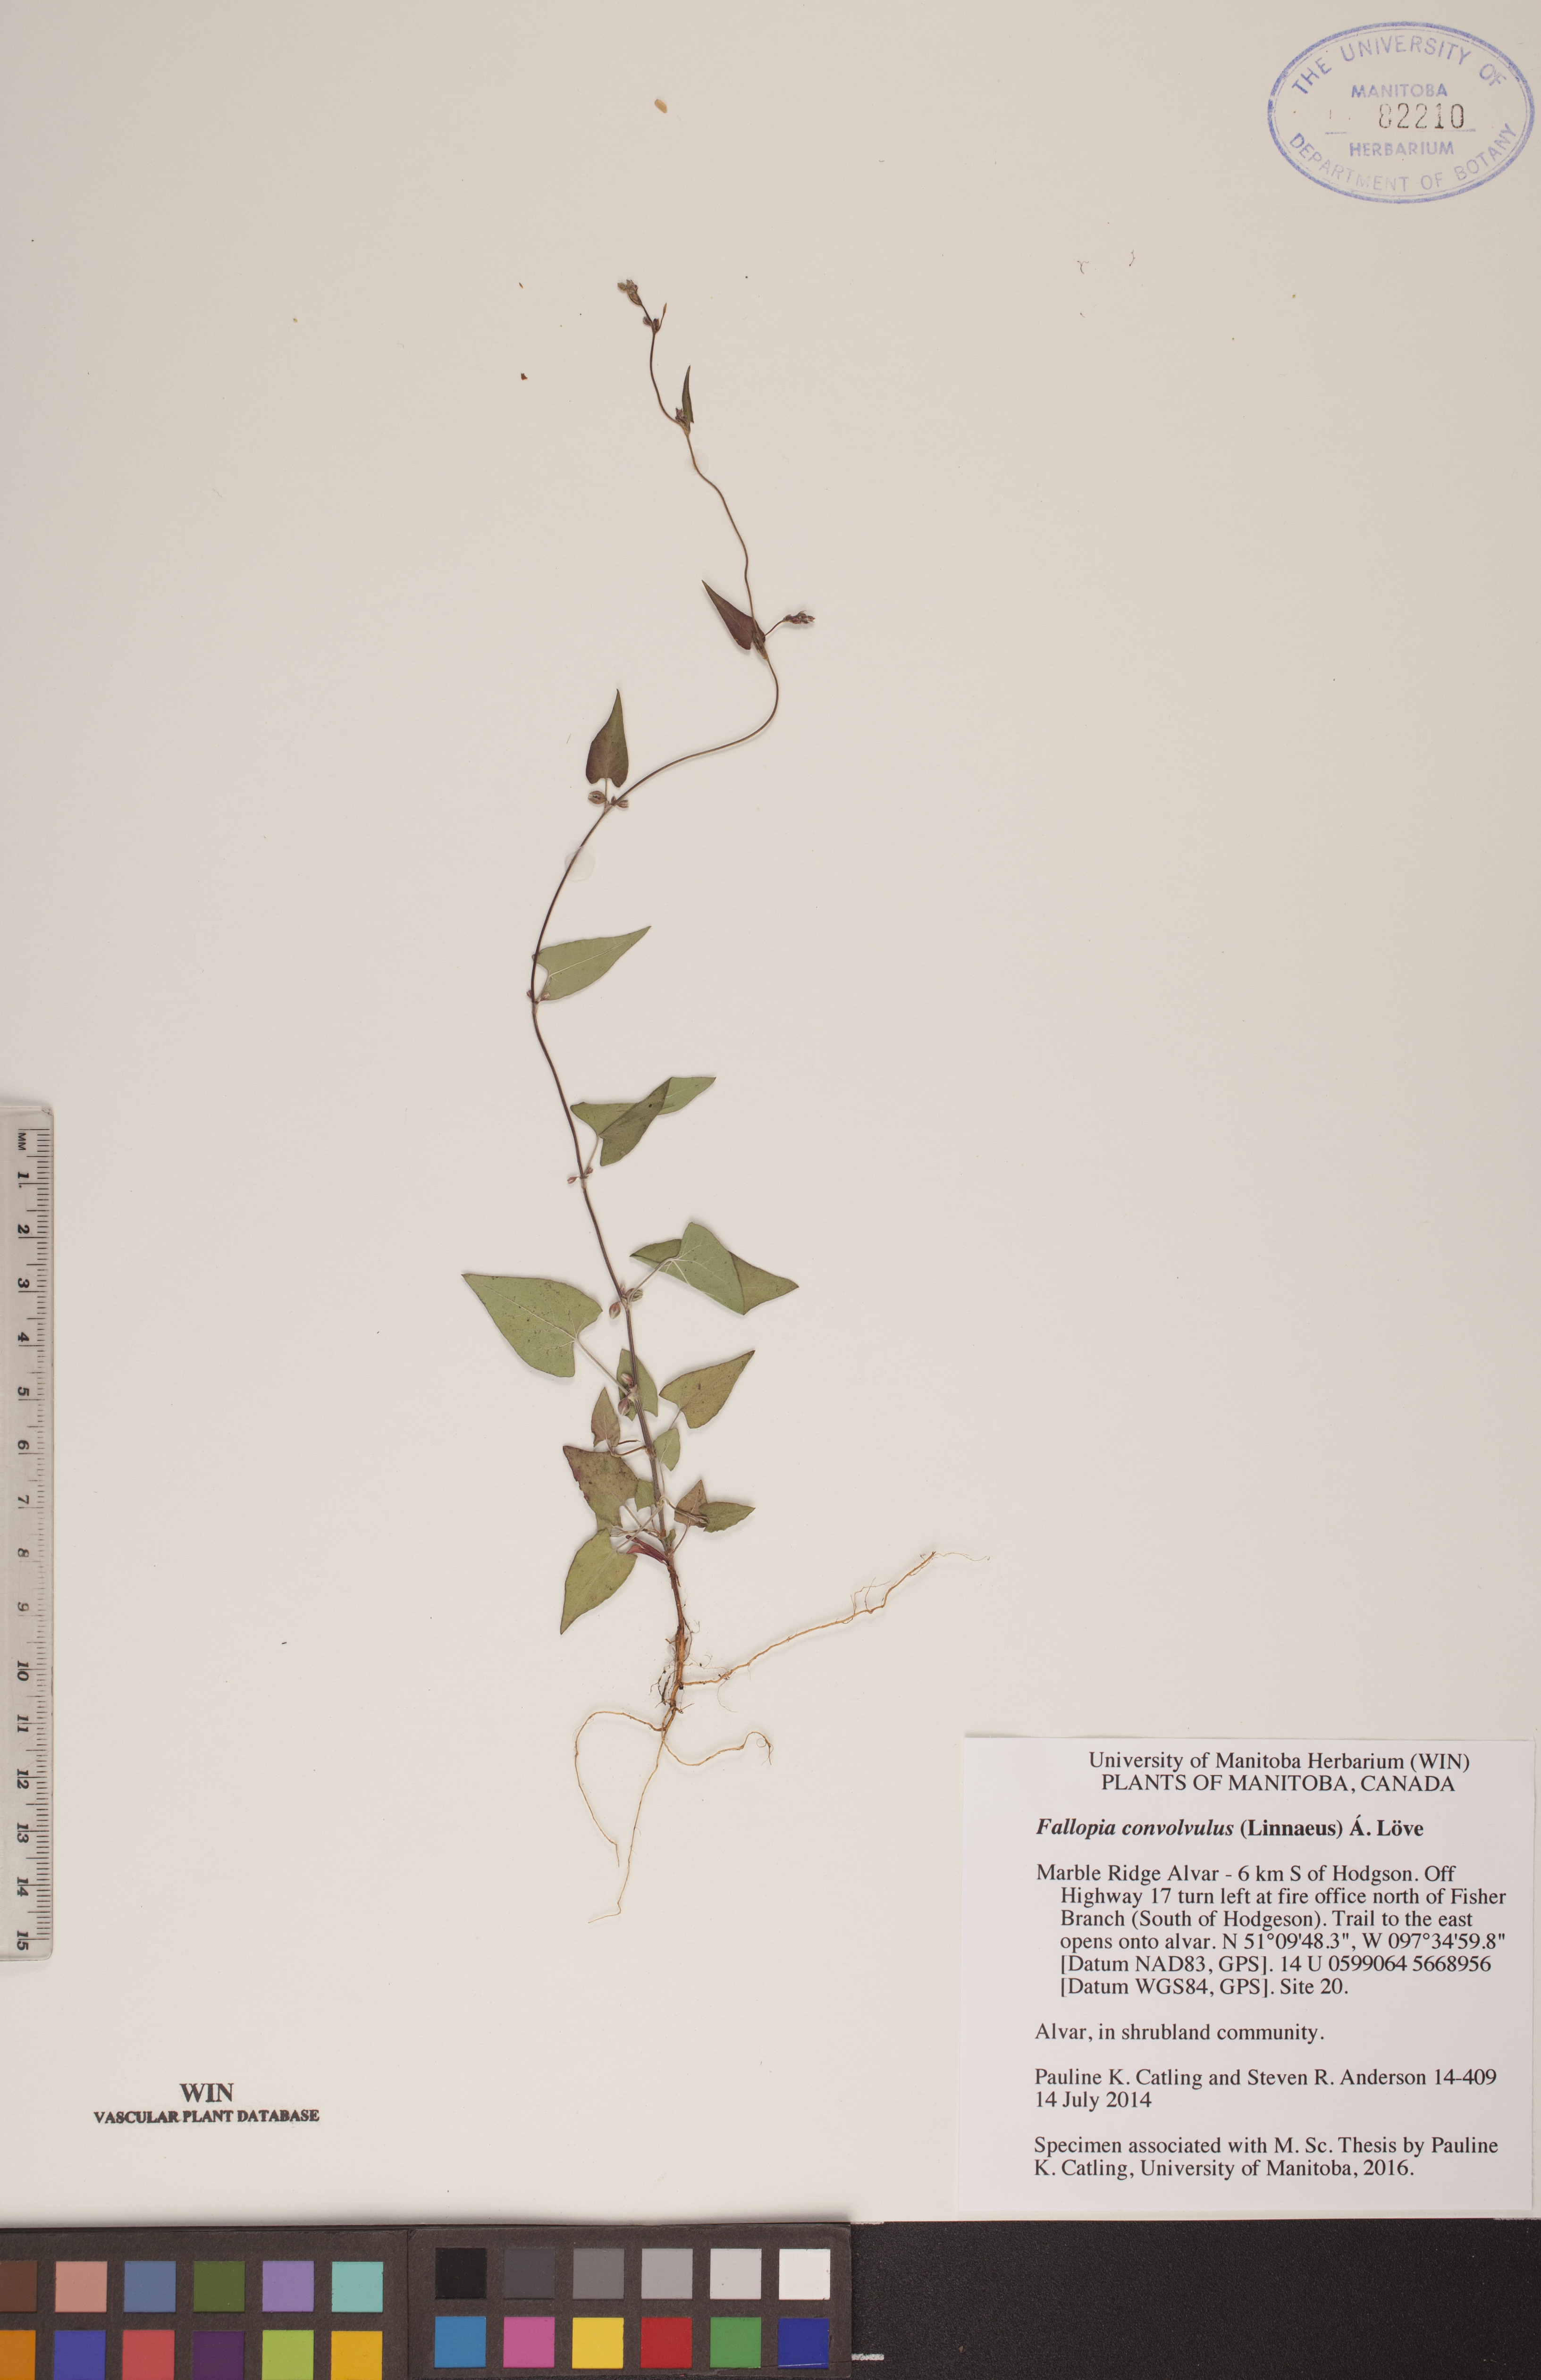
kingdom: Plantae
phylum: Tracheophyta
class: Magnoliopsida
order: Caryophyllales
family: Polygonaceae
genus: Fallopia
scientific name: Fallopia convolvulus
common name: Black bindweed
